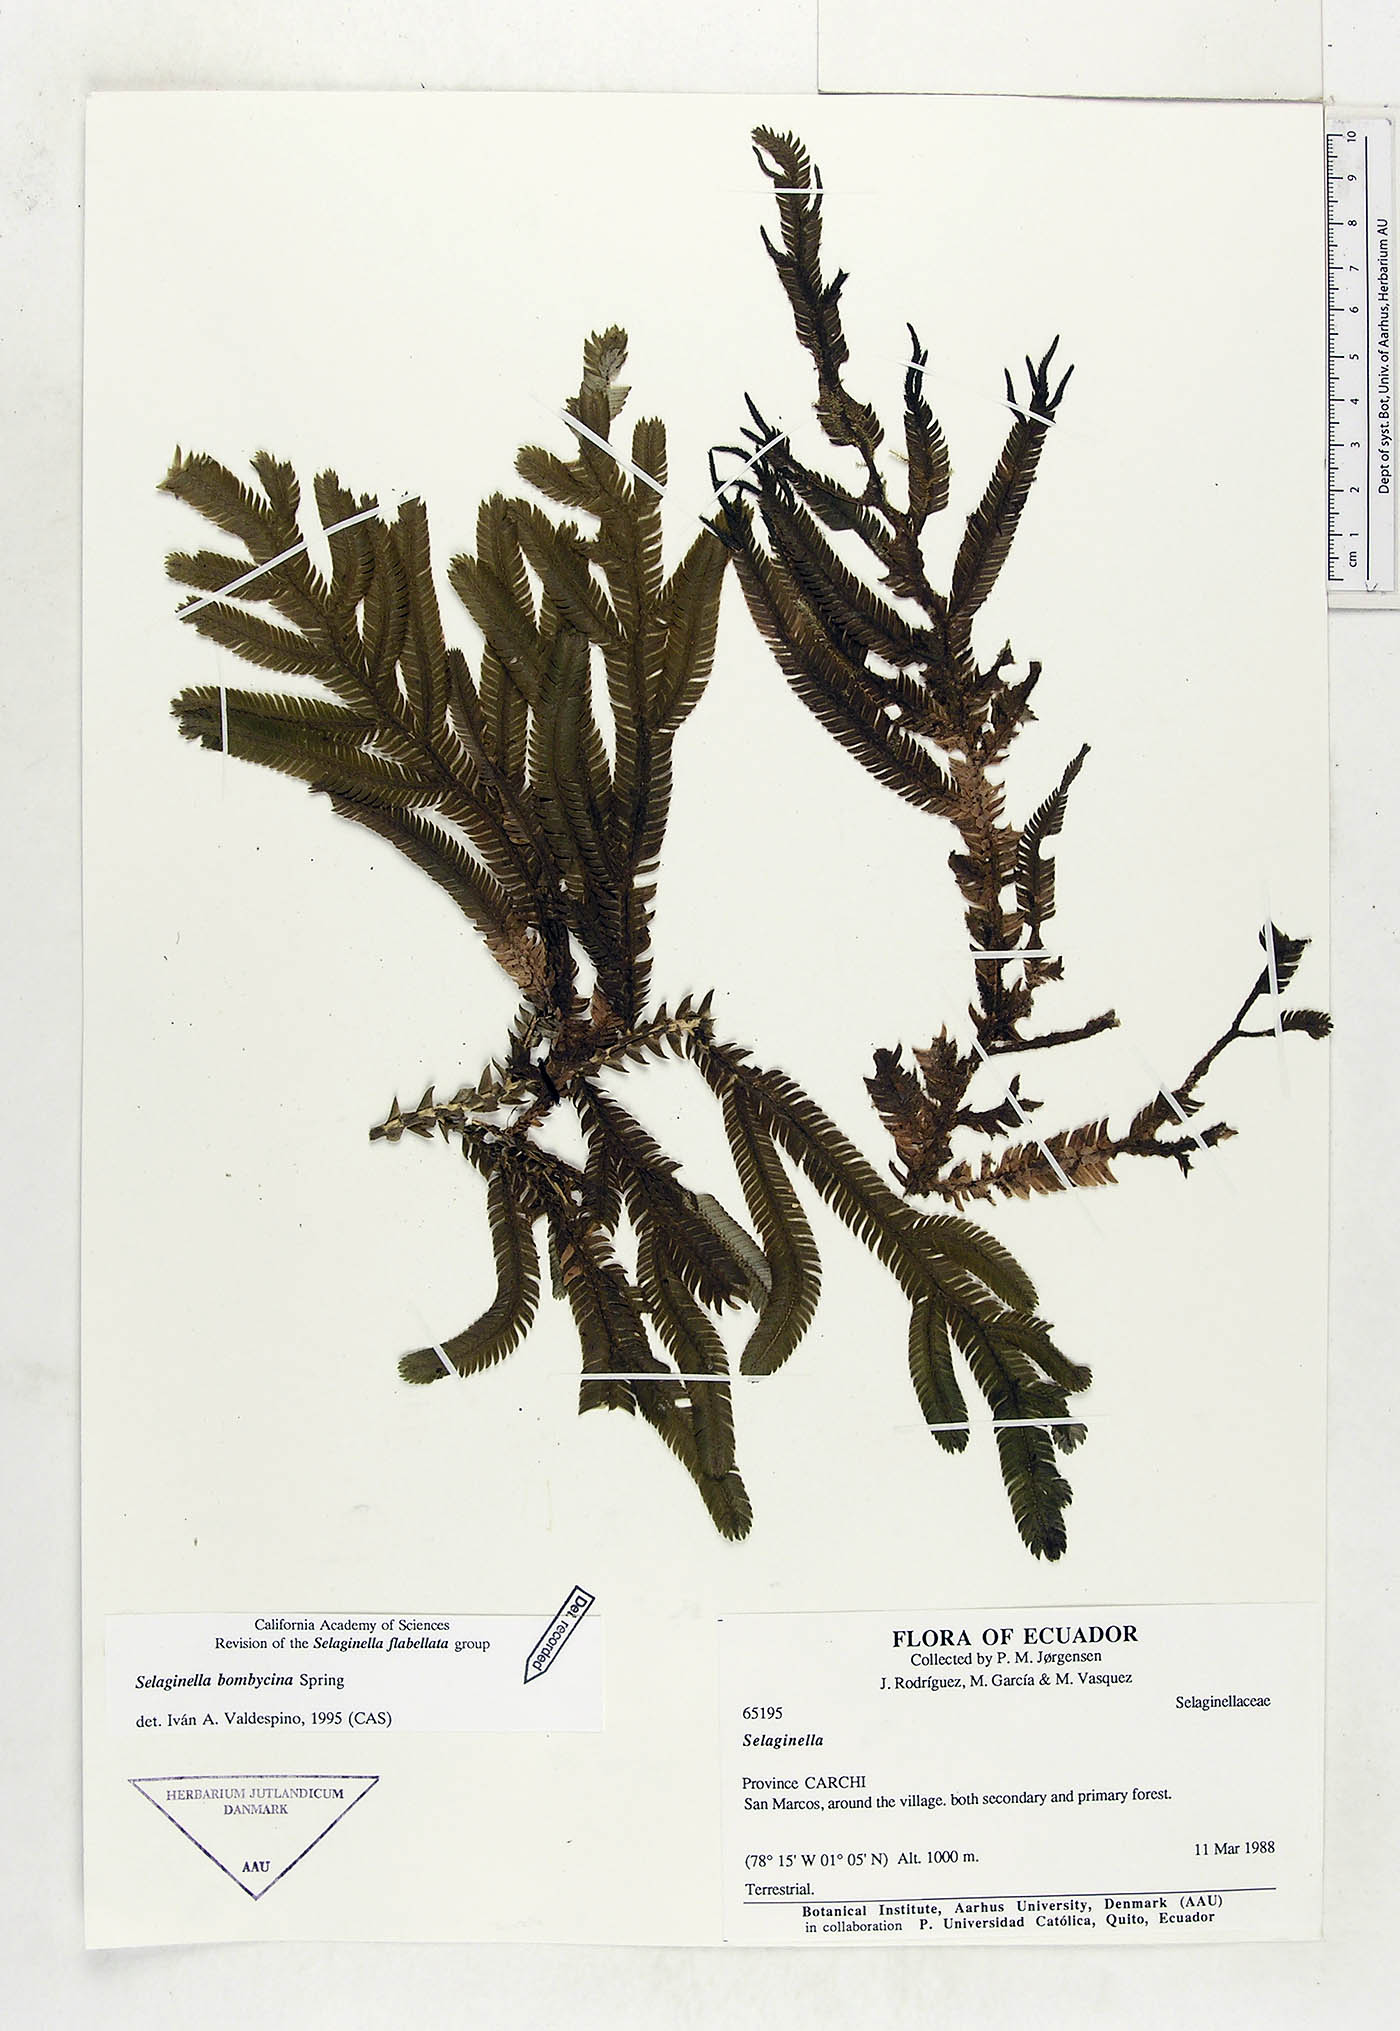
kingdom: Plantae
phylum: Tracheophyta
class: Lycopodiopsida
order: Selaginellales
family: Selaginellaceae
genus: Selaginella
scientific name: Selaginella bombycina
